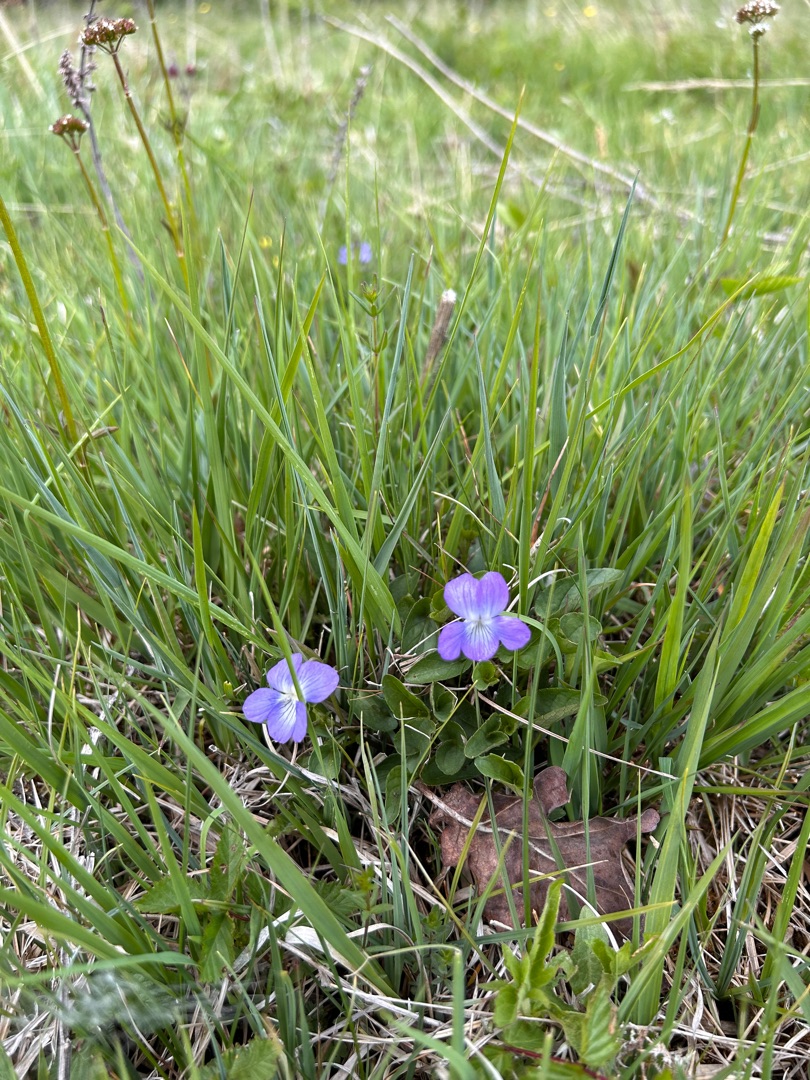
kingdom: Plantae
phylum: Tracheophyta
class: Magnoliopsida
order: Malpighiales
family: Violaceae
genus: Viola
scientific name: Viola canina
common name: Hunde-viol
